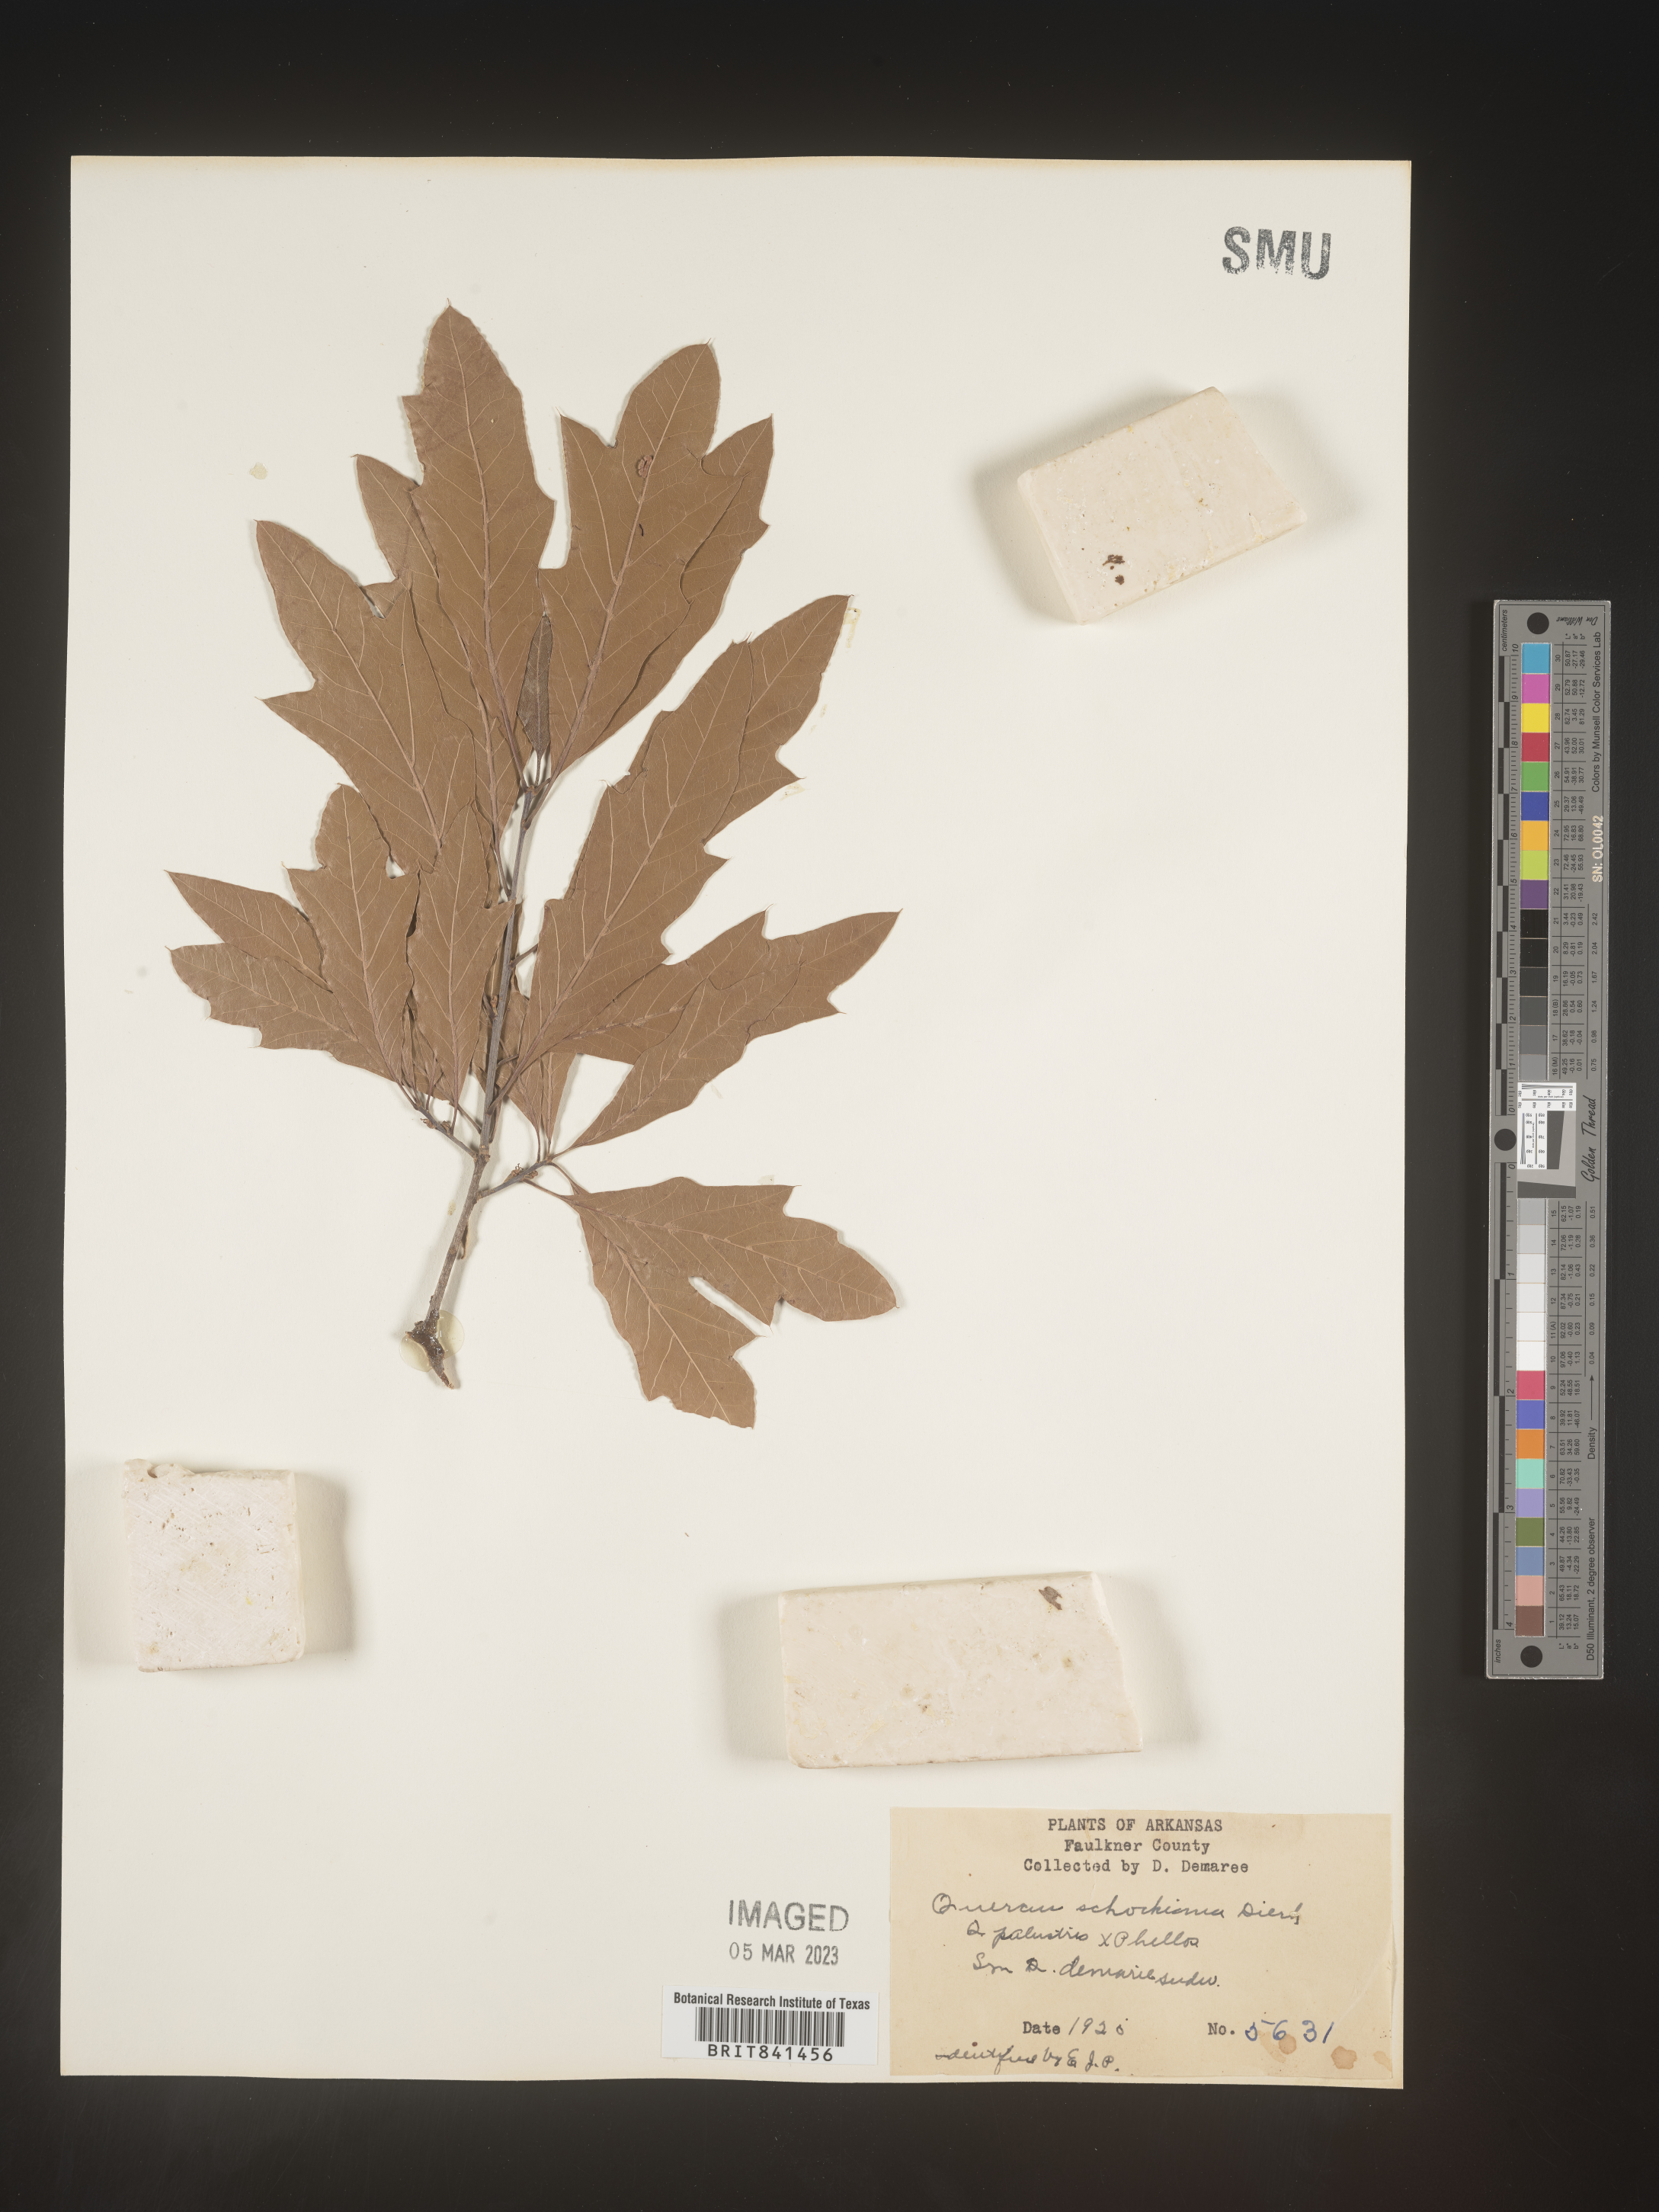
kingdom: Plantae
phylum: Tracheophyta
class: Magnoliopsida
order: Fagales
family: Fagaceae
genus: Quercus
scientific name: Quercus schochiana
